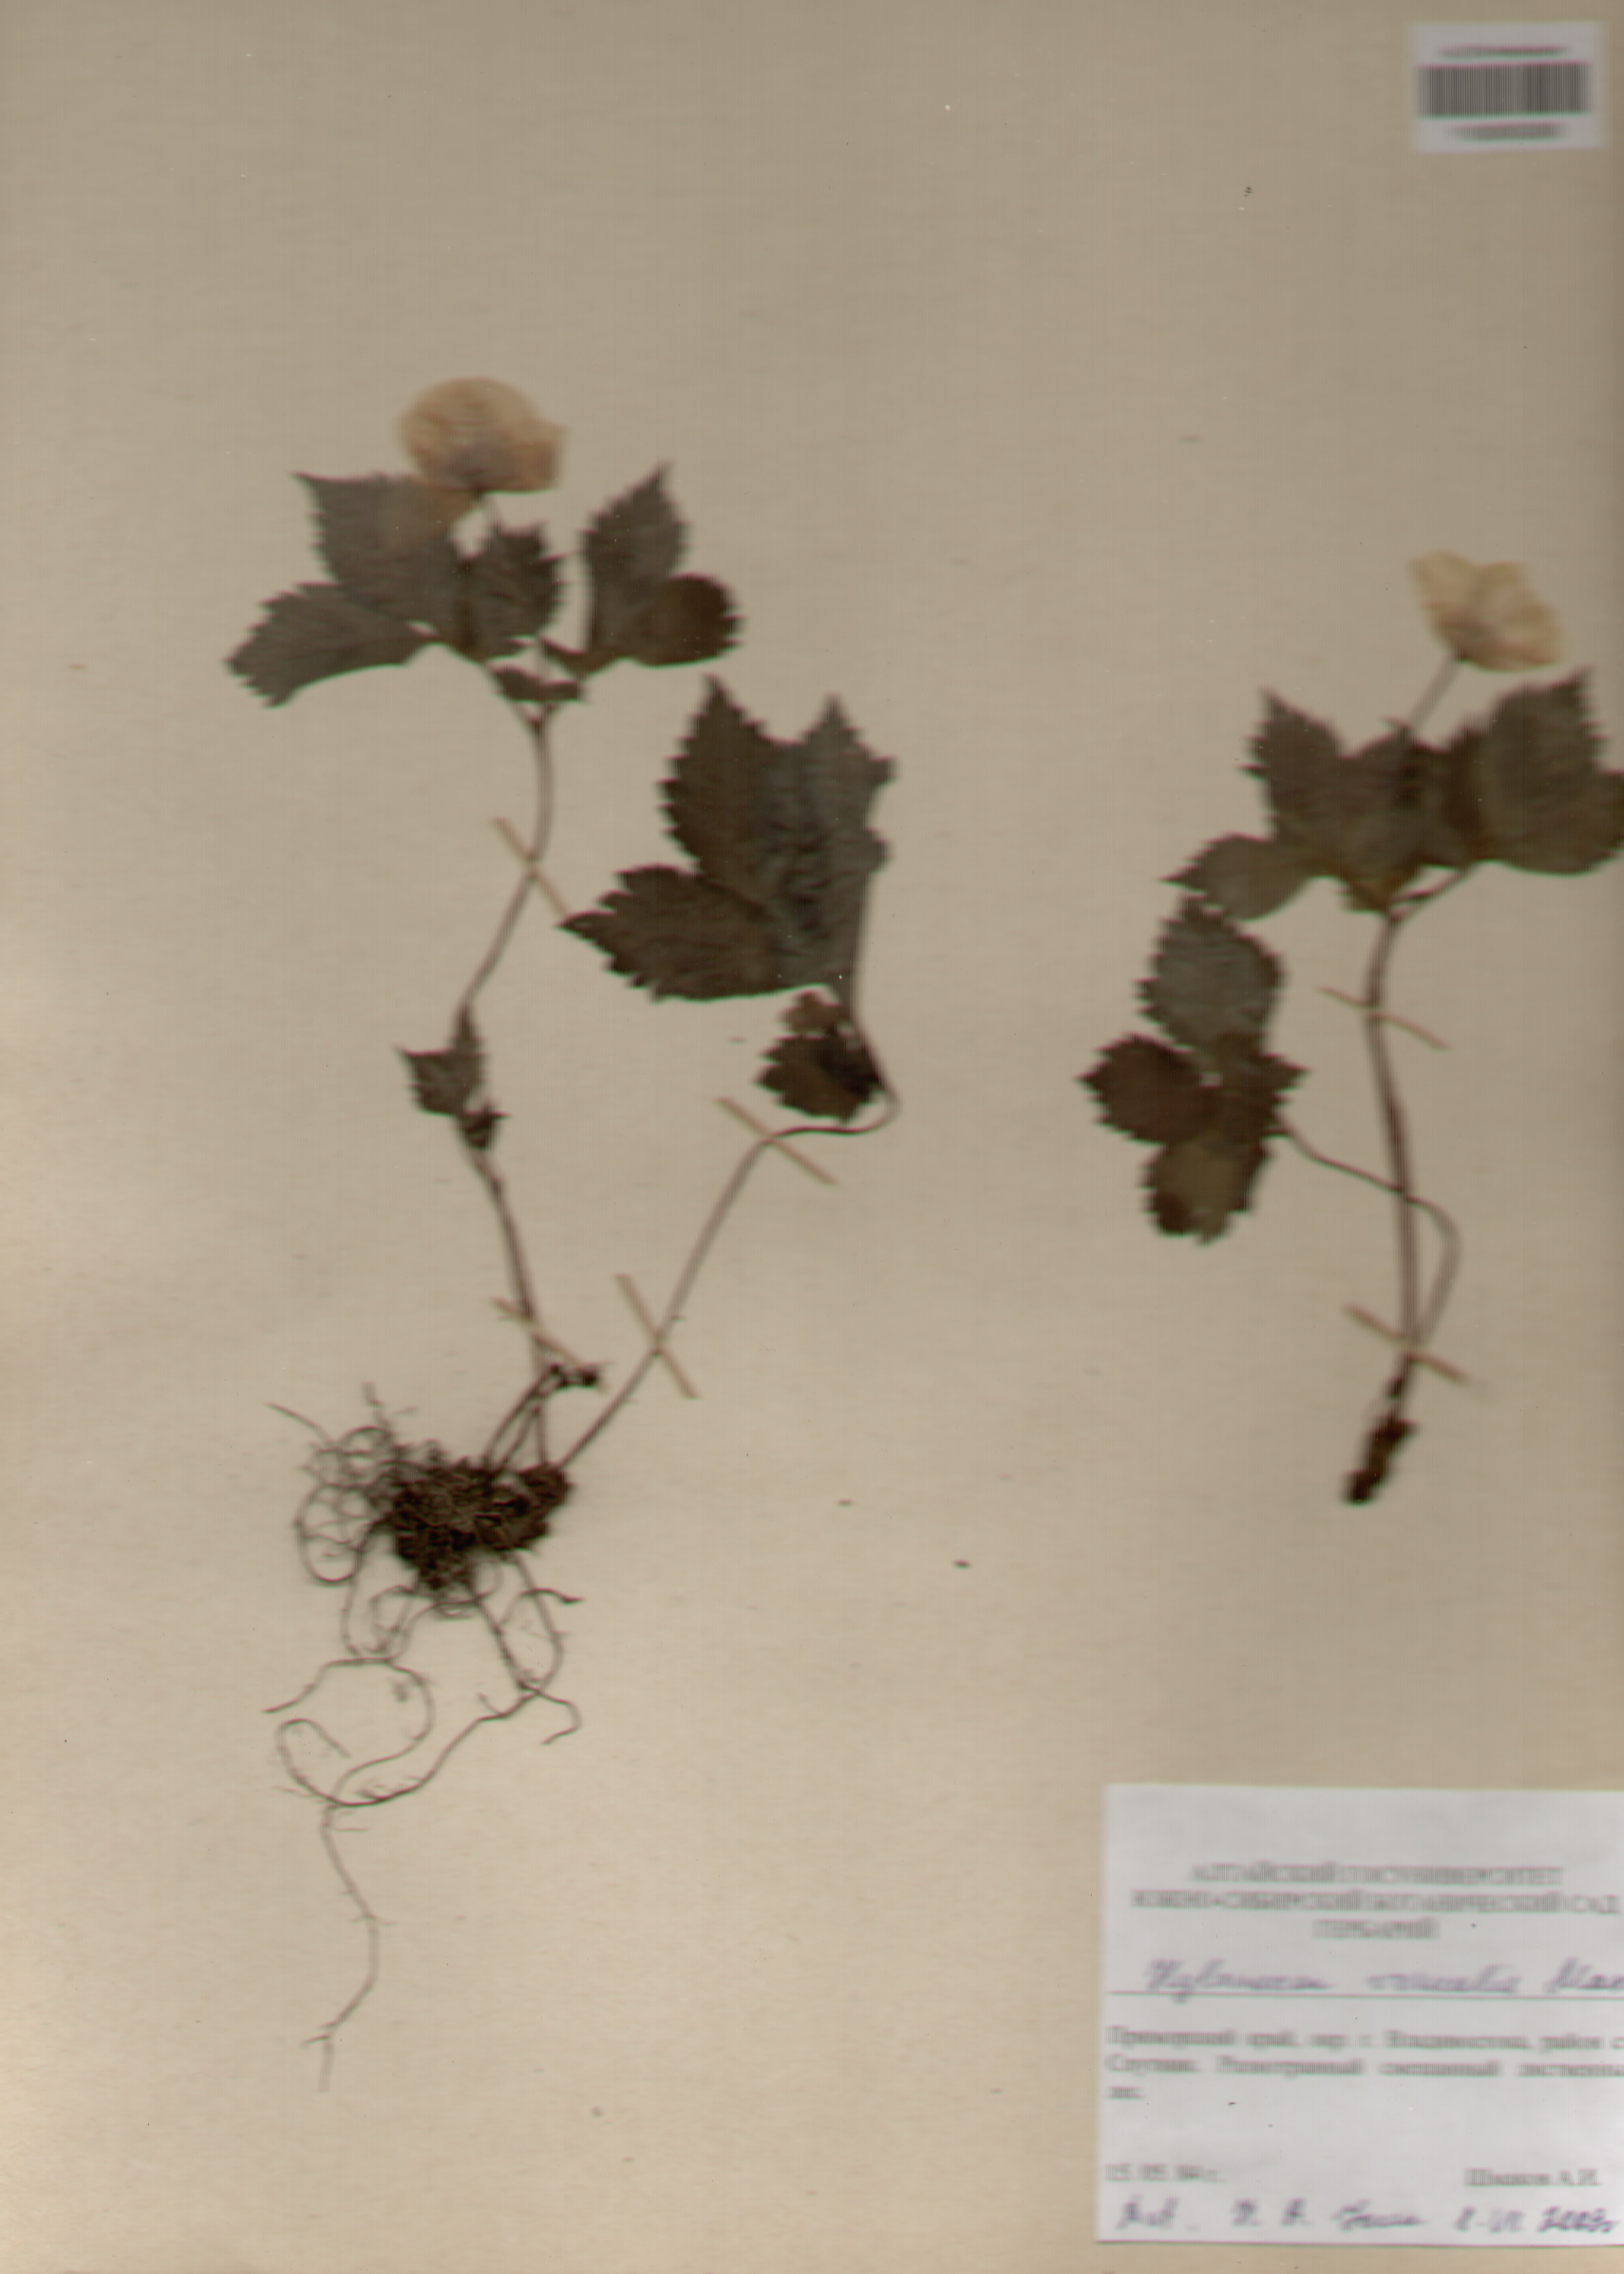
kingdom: Plantae
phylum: Tracheophyta
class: Magnoliopsida
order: Ranunculales
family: Papaveraceae
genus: Glaucium
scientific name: Glaucium
